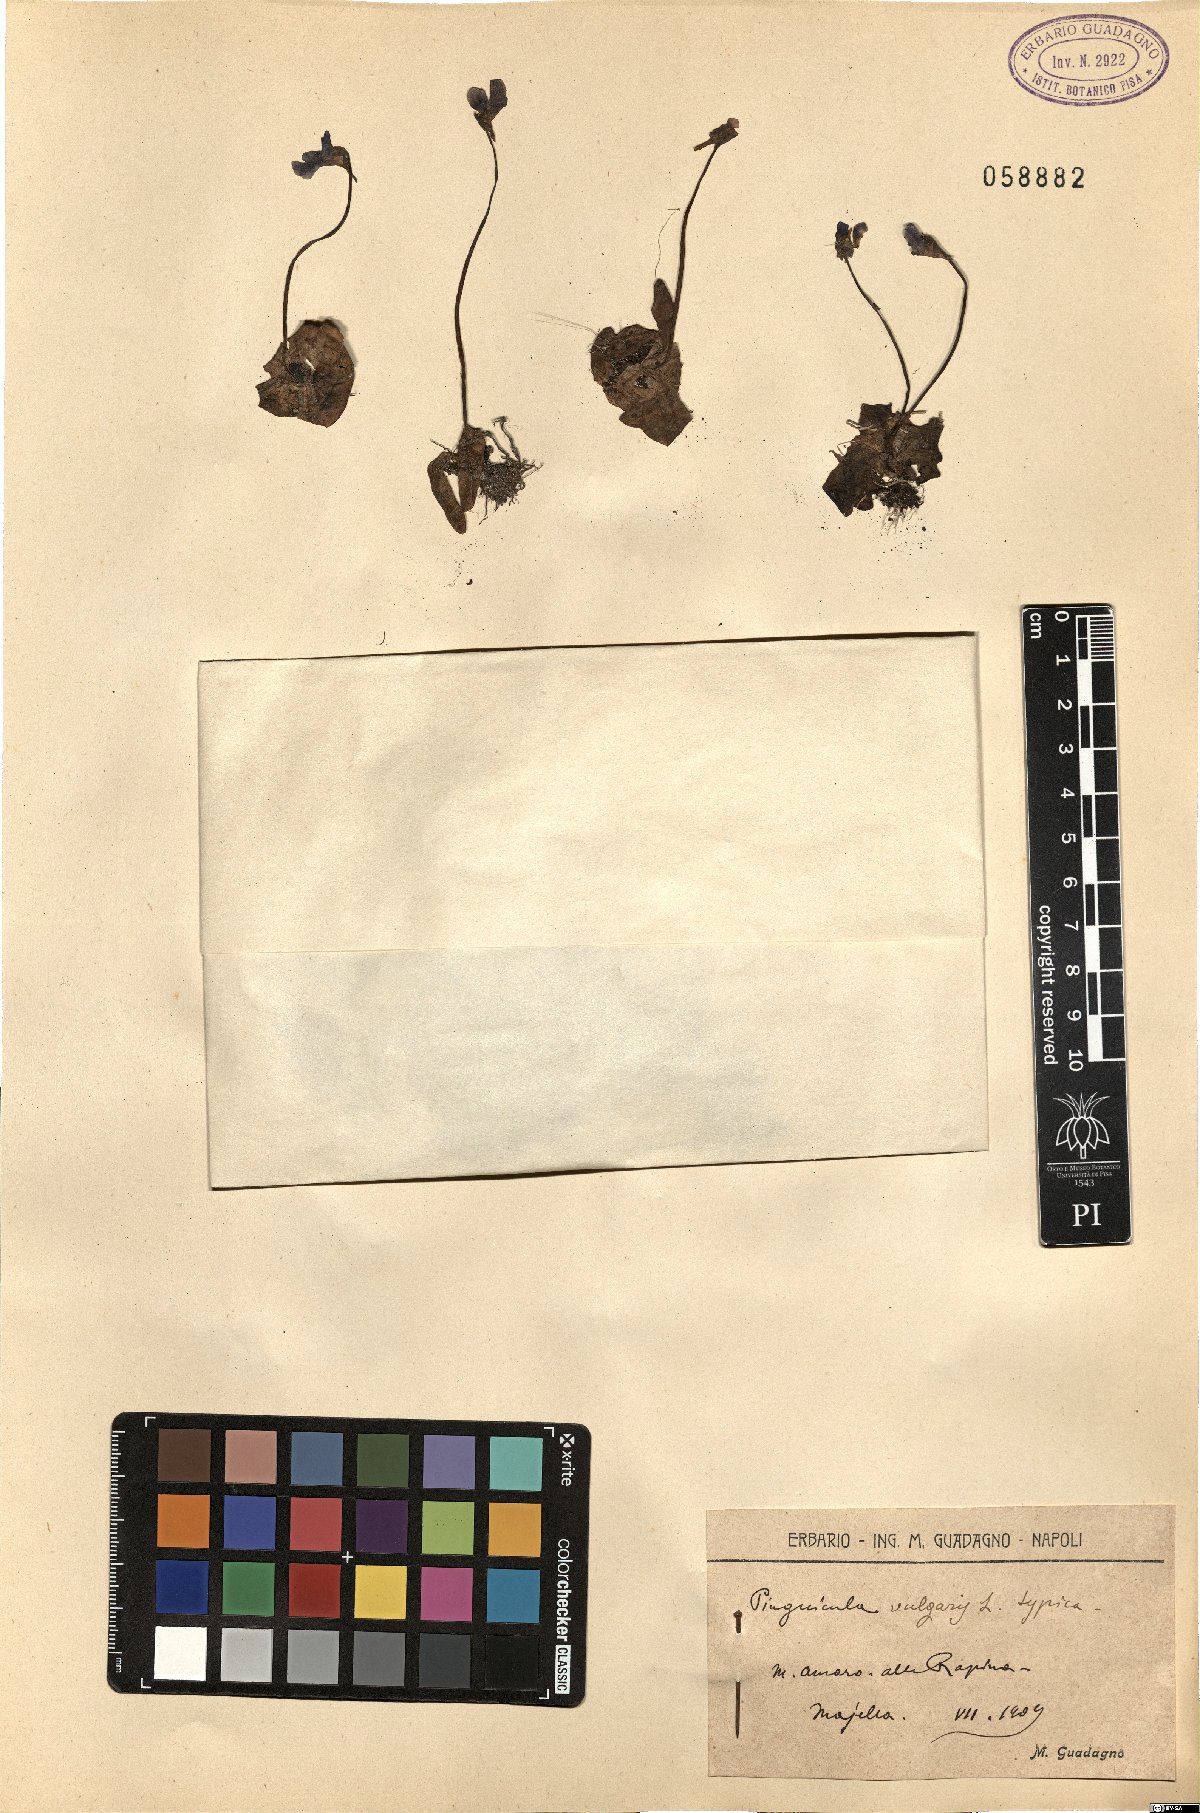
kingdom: Plantae
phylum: Tracheophyta
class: Magnoliopsida
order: Lamiales
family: Lentibulariaceae
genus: Pinguicula
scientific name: Pinguicula vulgaris
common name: Common butterwort
